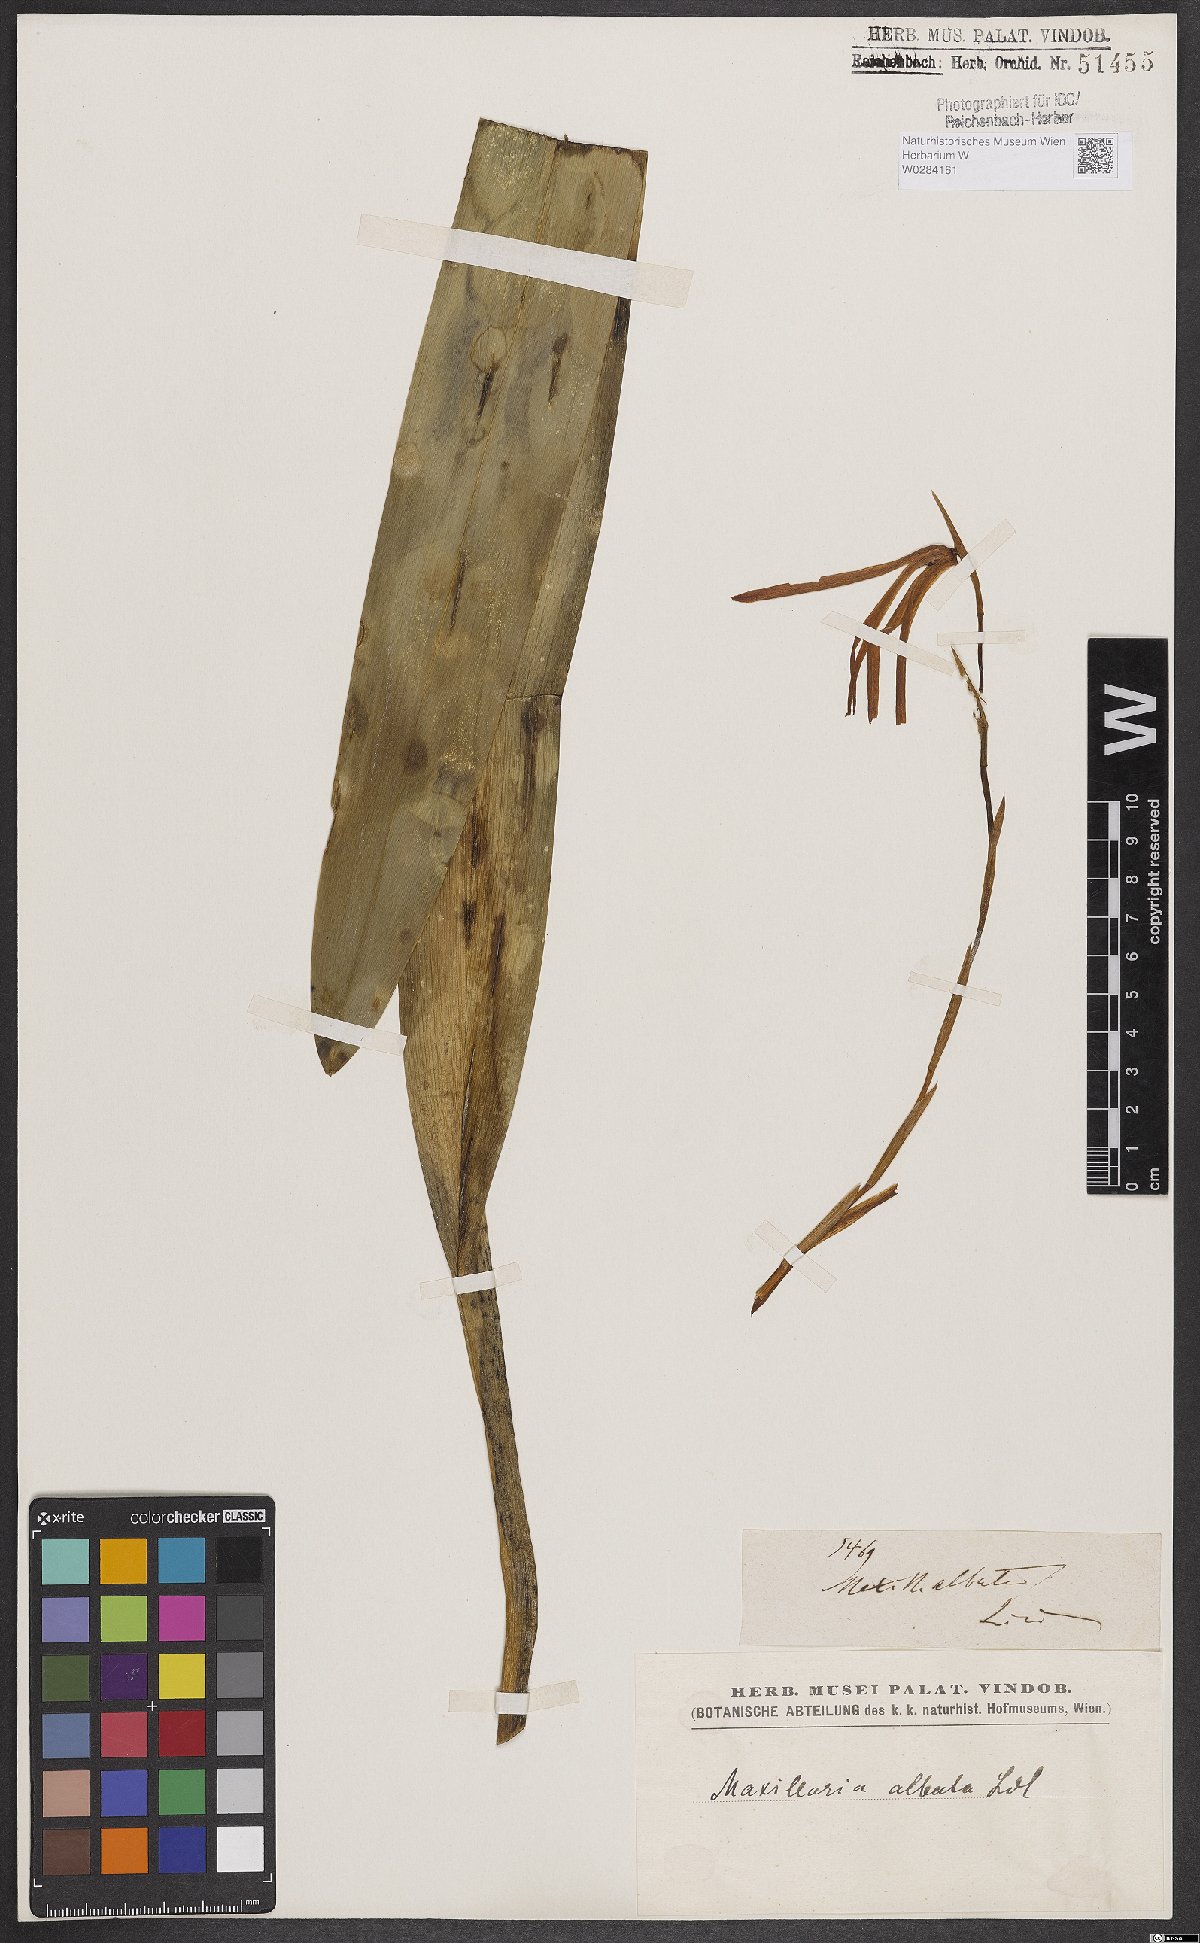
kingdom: Plantae
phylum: Tracheophyta
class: Liliopsida
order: Asparagales
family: Orchidaceae
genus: Maxillaria
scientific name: Maxillaria albata
